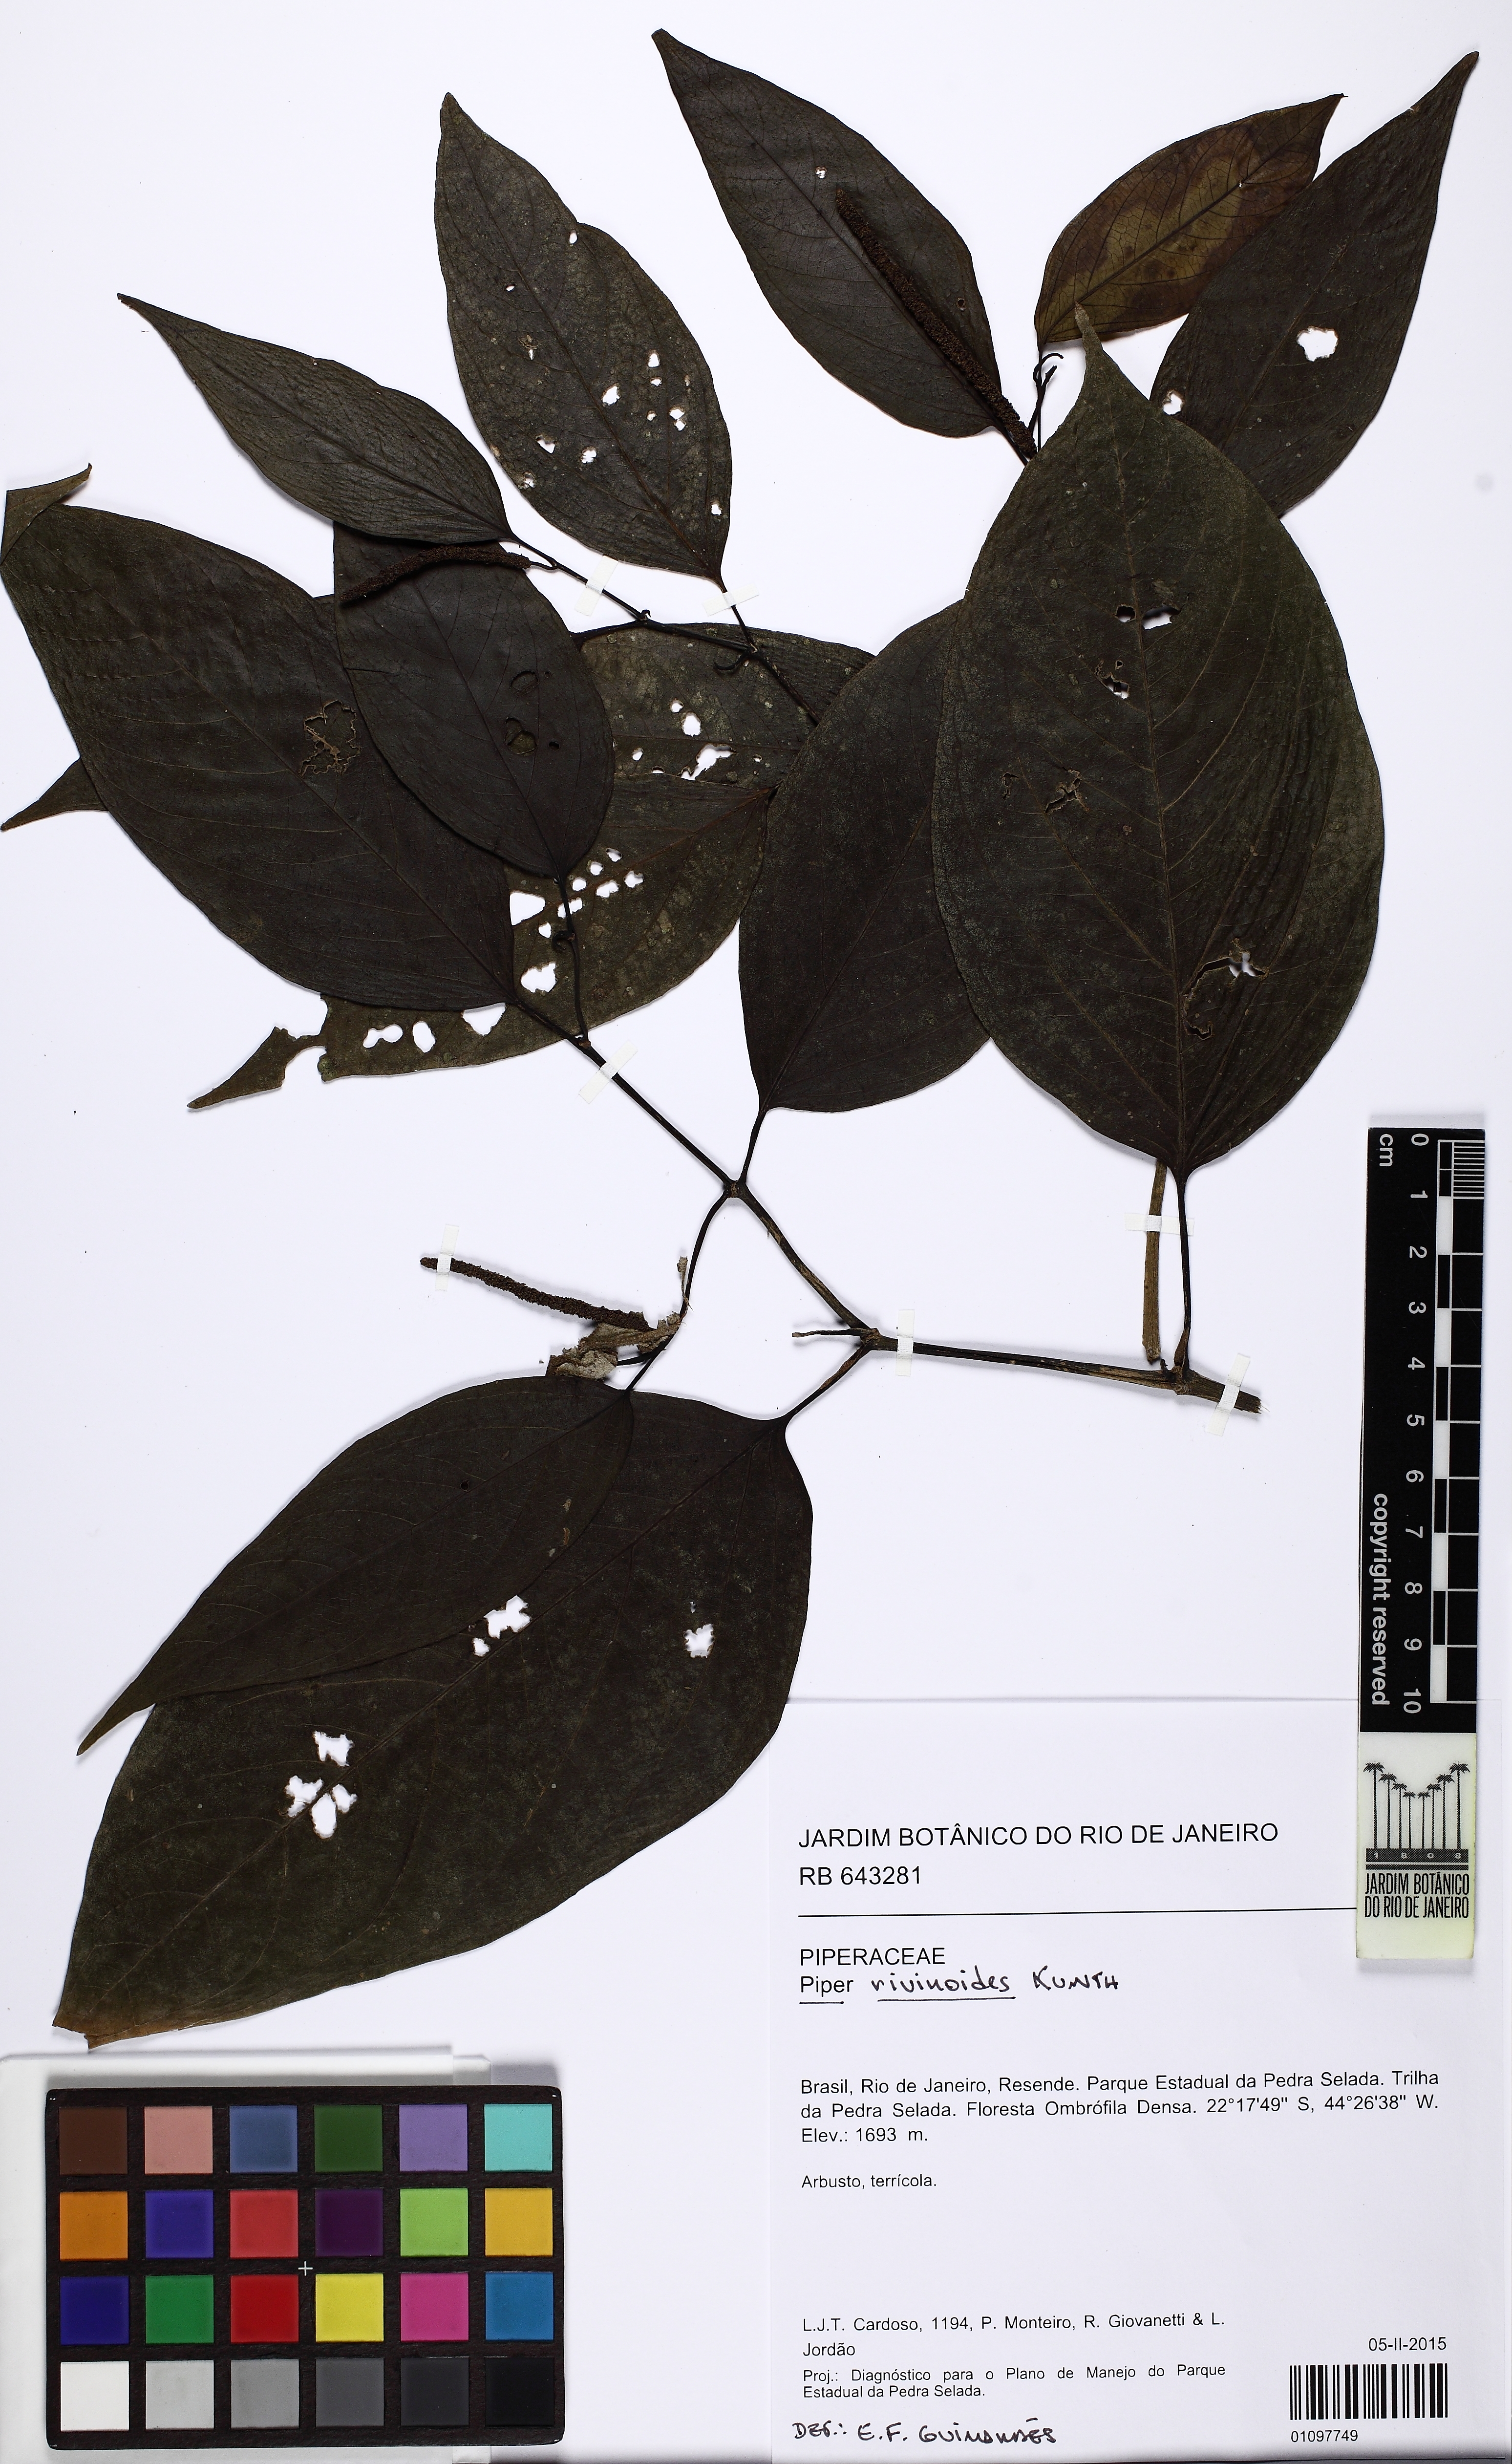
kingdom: Plantae
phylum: Tracheophyta
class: Magnoliopsida
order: Piperales
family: Piperaceae
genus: Piper
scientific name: Piper rivinoides
